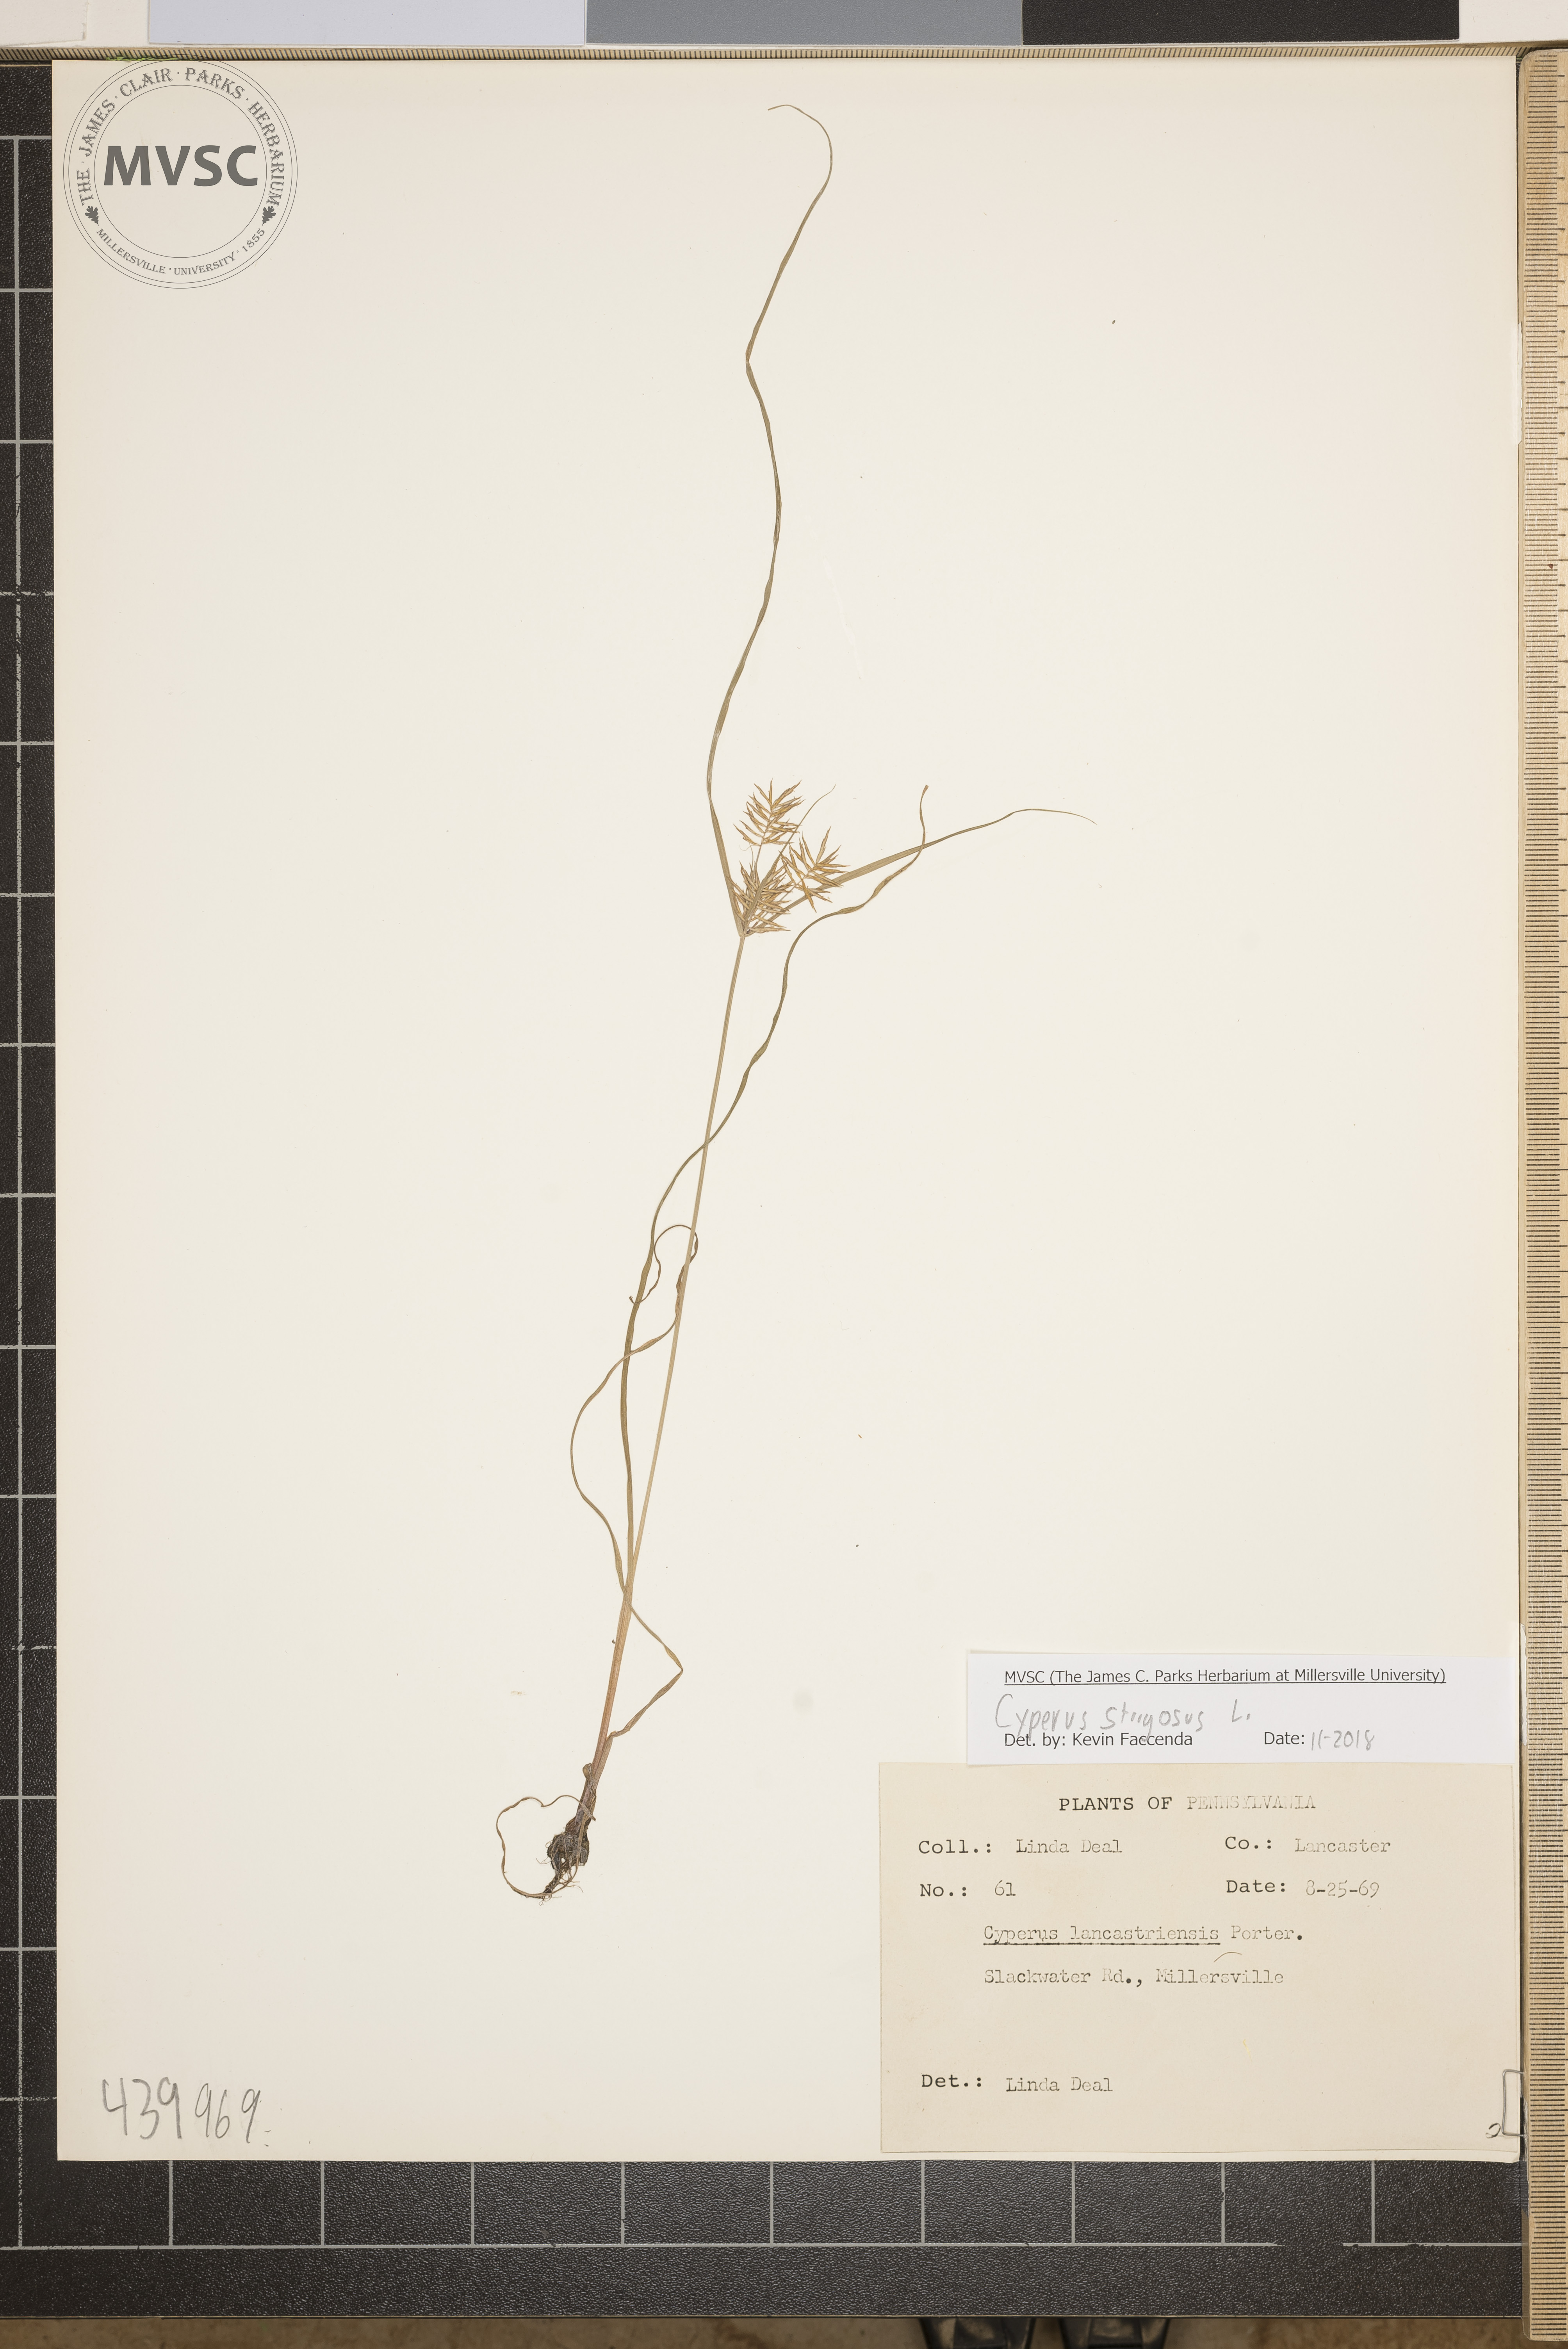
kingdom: Plantae
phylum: Tracheophyta
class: Liliopsida
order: Poales
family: Cyperaceae
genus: Cyperus
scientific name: Cyperus strigosus
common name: False nutsedge
